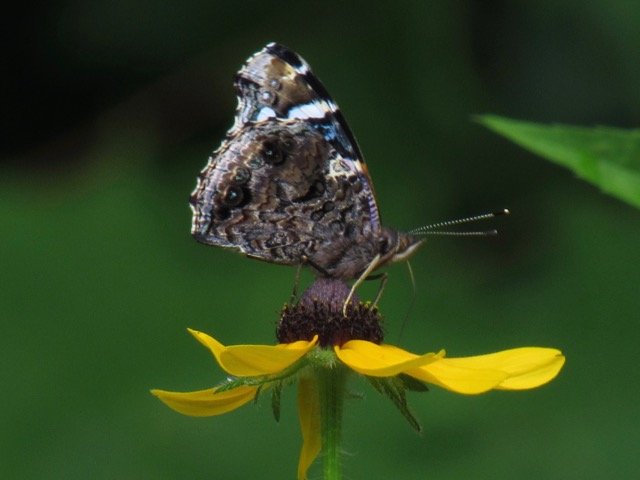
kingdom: Animalia
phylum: Arthropoda
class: Insecta
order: Lepidoptera
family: Nymphalidae
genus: Vanessa
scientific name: Vanessa atalanta
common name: Red Admiral
